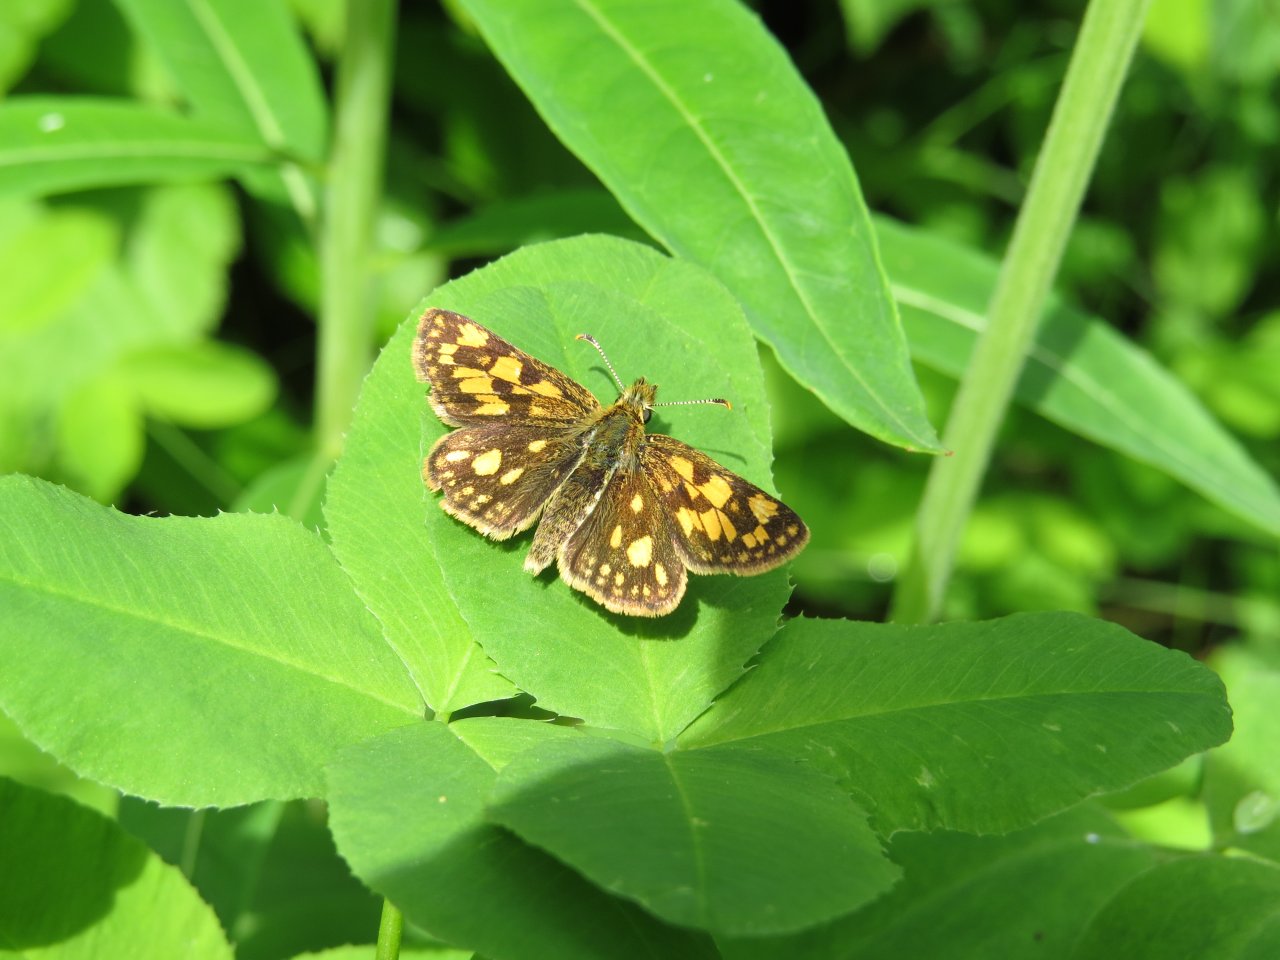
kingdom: Animalia
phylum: Arthropoda
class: Insecta
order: Lepidoptera
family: Hesperiidae
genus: Carterocephalus
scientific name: Carterocephalus palaemon
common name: Chequered Skipper
